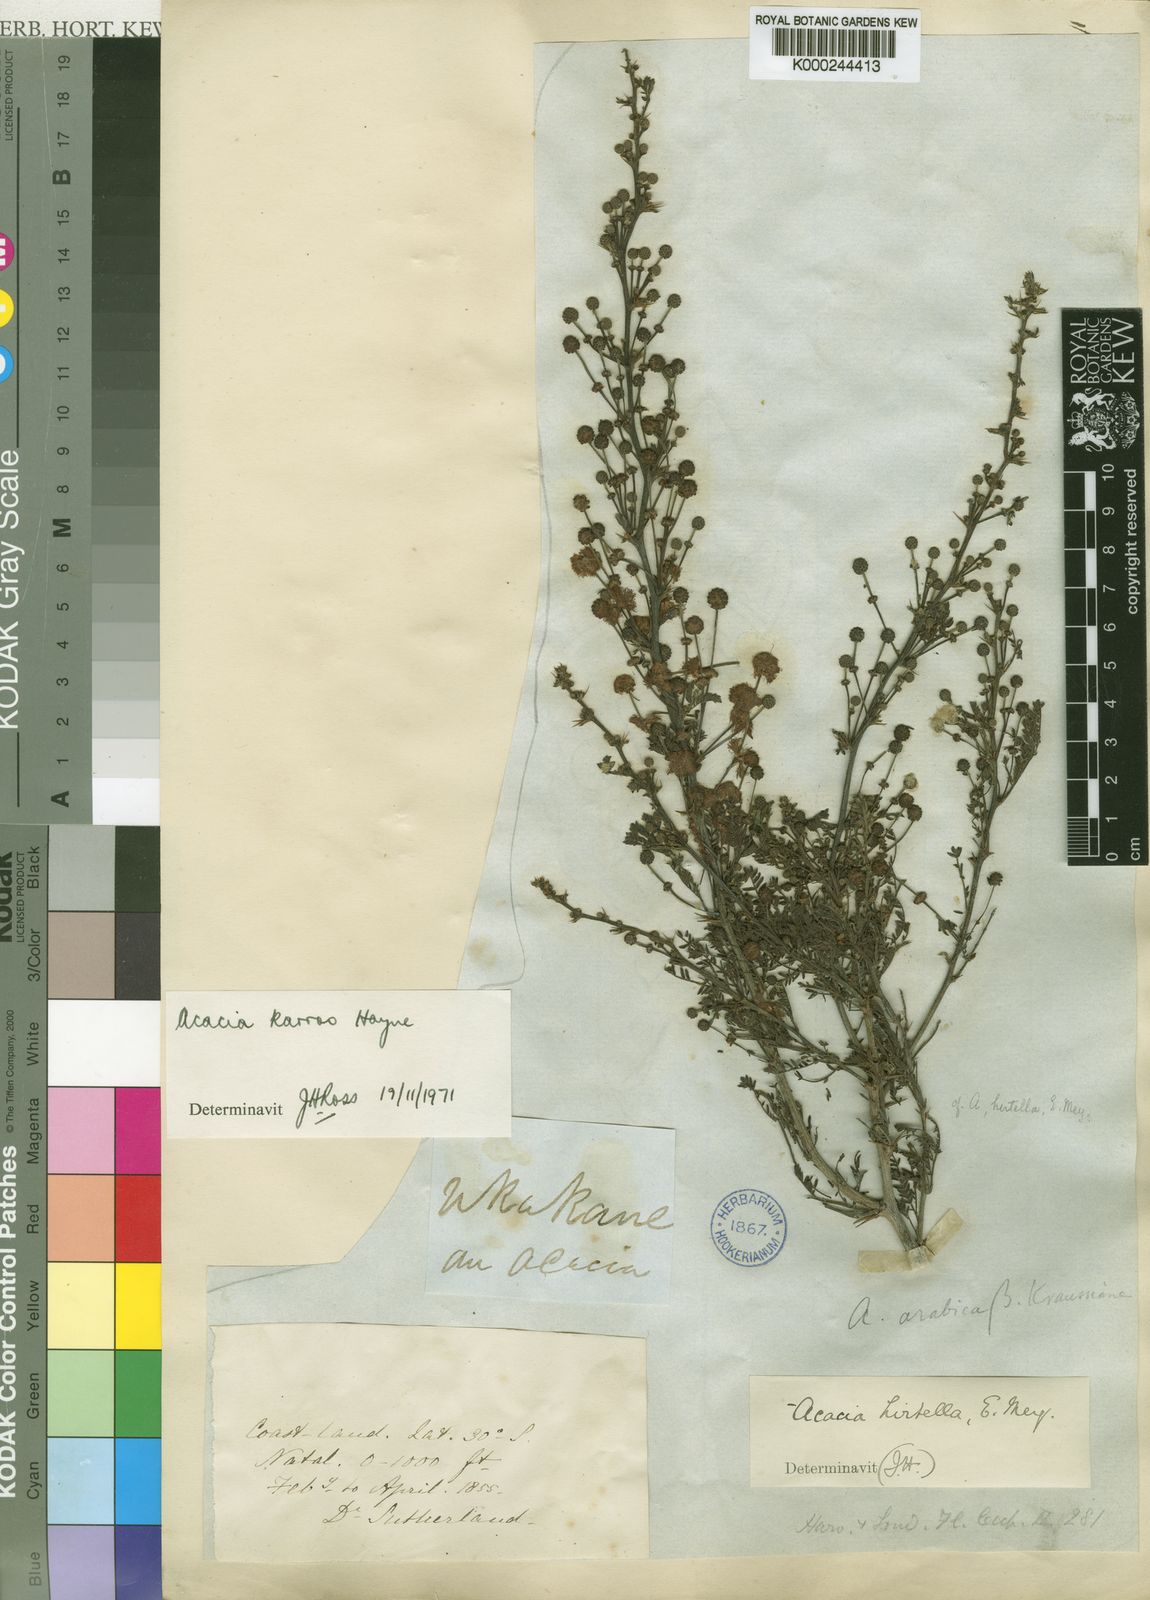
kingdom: Plantae
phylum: Tracheophyta
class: Magnoliopsida
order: Fabales
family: Fabaceae
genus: Vachellia
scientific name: Vachellia karroo
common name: Sweet thorn
